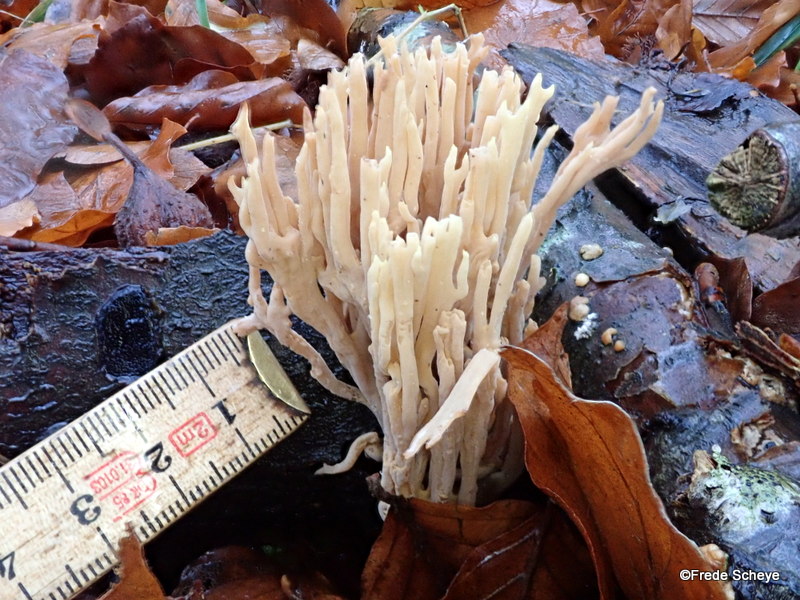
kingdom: Fungi
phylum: Basidiomycota
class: Agaricomycetes
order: Gomphales
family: Gomphaceae
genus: Ramaria
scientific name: Ramaria stricta
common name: rank koralsvamp
